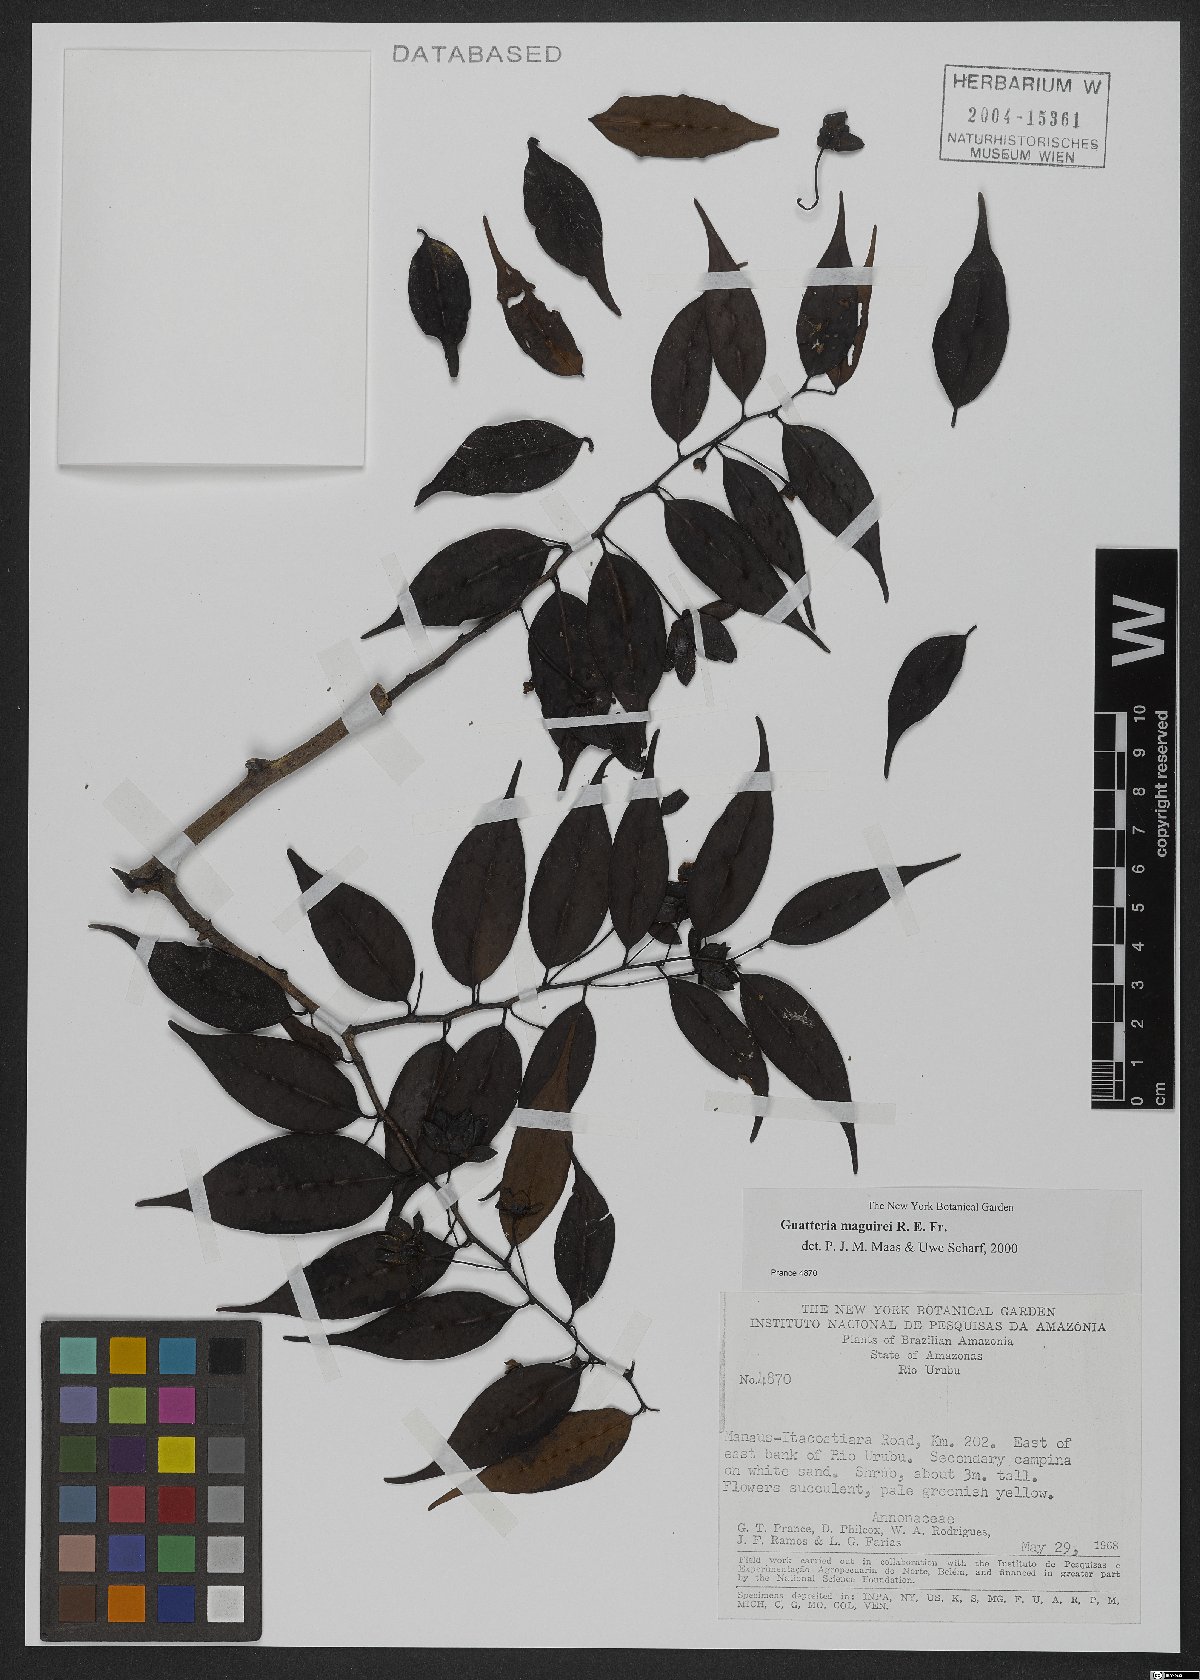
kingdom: Plantae
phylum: Tracheophyta
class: Magnoliopsida
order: Magnoliales
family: Annonaceae
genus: Guatteria
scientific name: Guatteria maguirei
